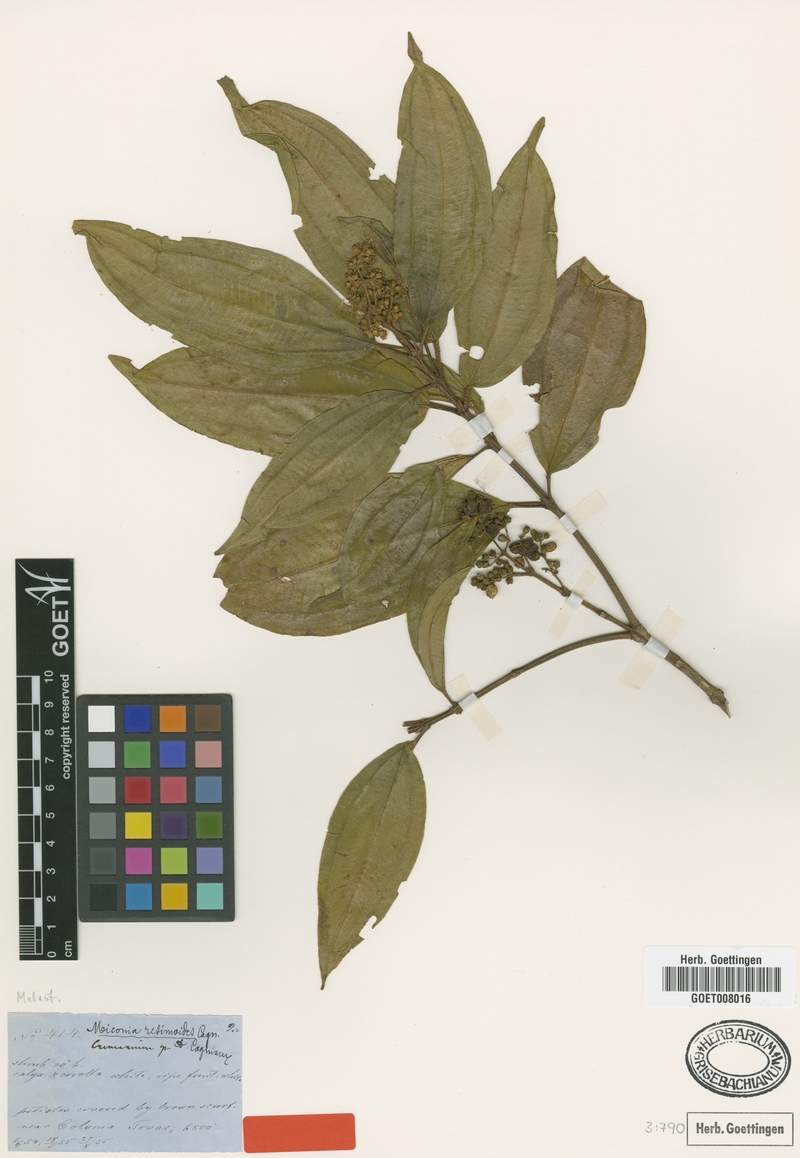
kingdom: Plantae
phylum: Tracheophyta
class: Magnoliopsida
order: Myrtales
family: Melastomataceae
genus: Miconia
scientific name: Miconia resimoides
